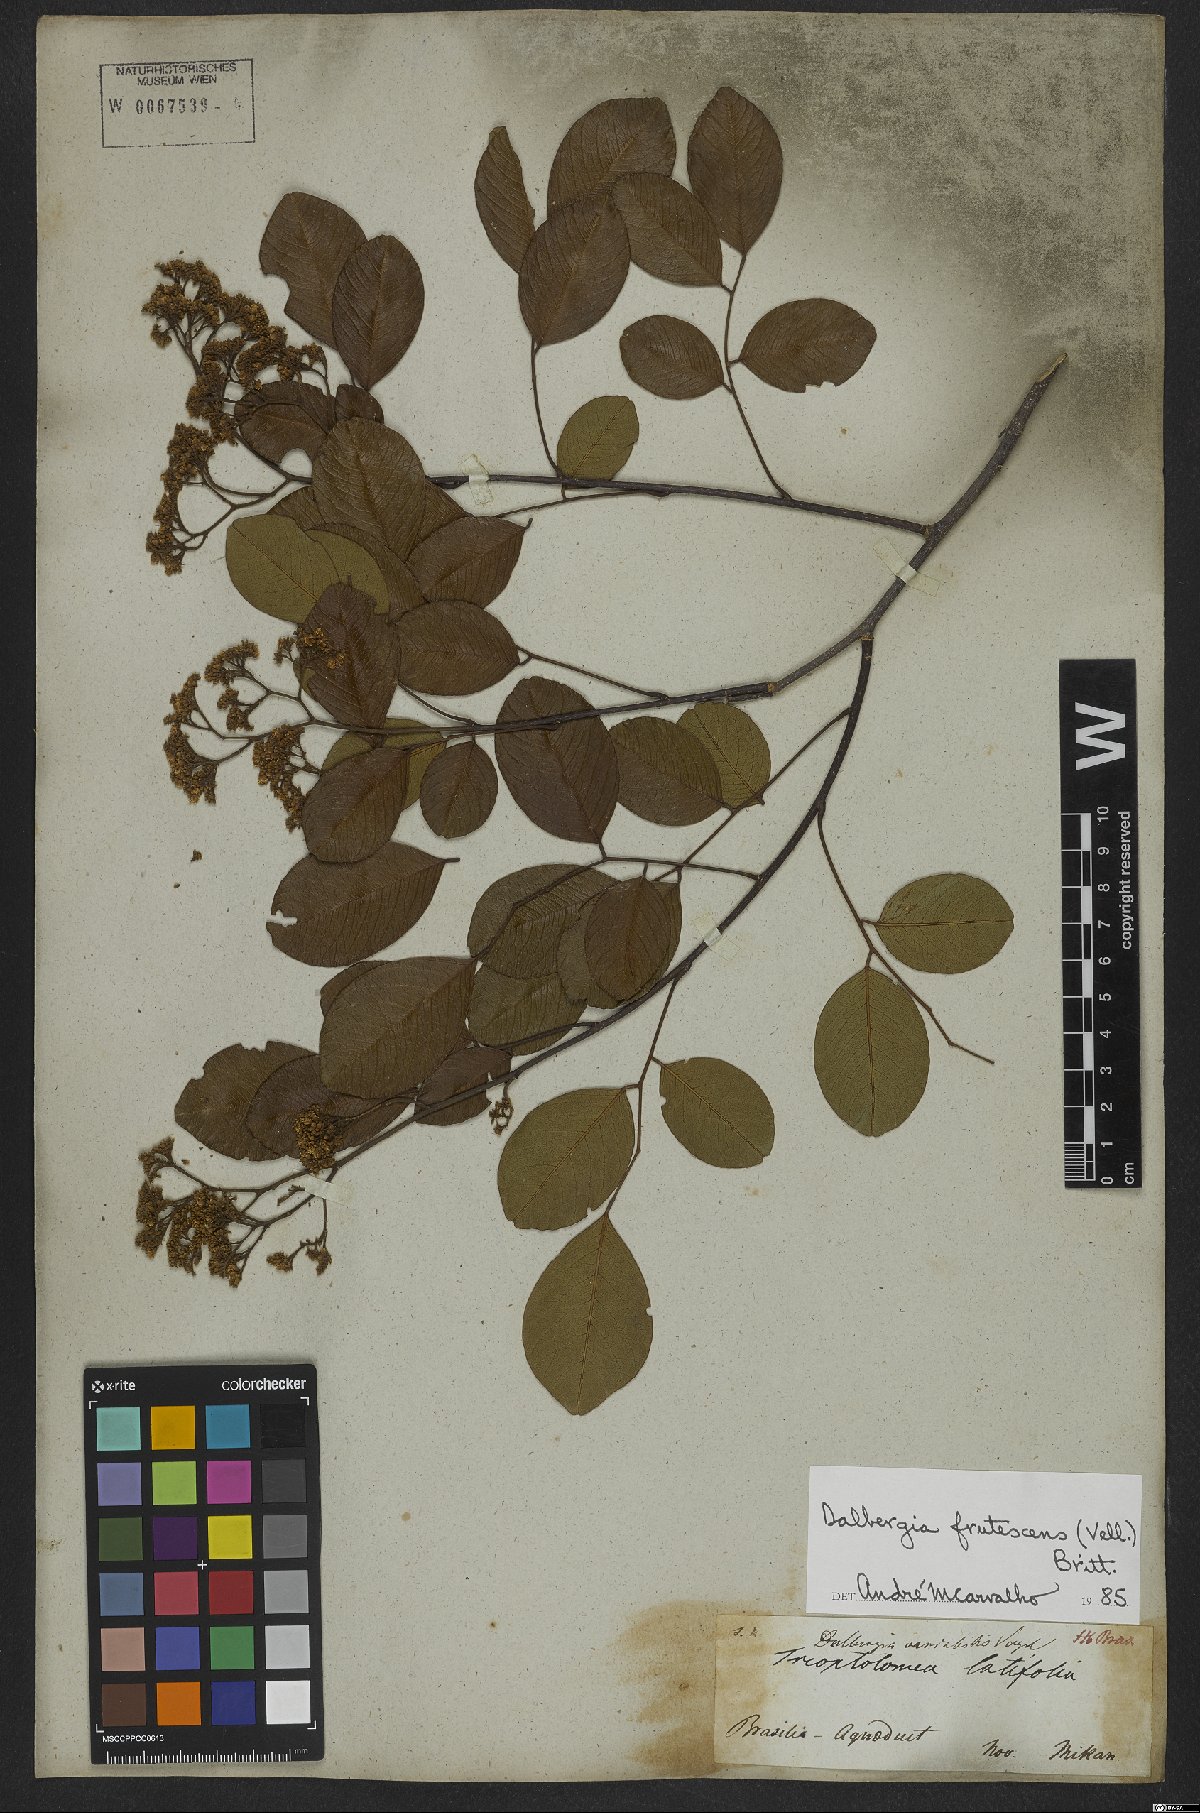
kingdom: Plantae
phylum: Tracheophyta
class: Magnoliopsida
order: Fabales
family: Fabaceae
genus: Dalbergia
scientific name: Dalbergia frutescens
